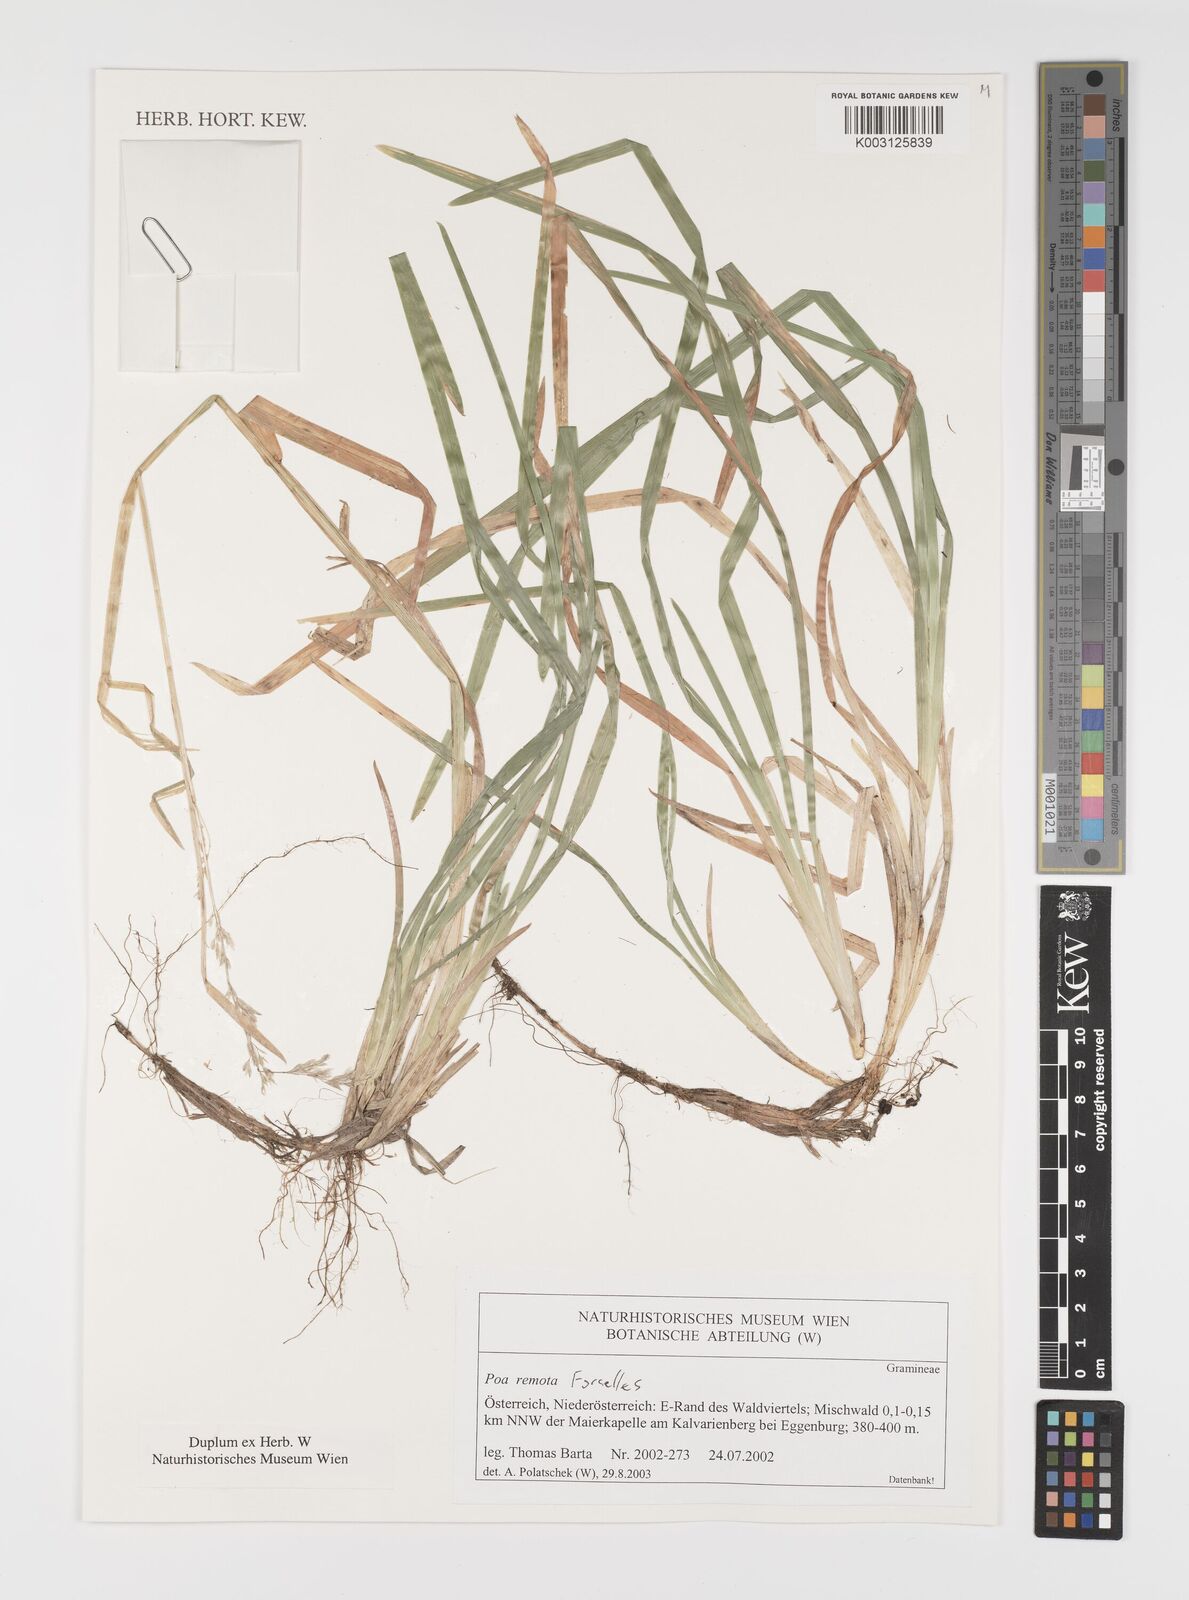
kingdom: Plantae
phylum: Tracheophyta
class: Liliopsida
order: Poales
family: Poaceae
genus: Poa
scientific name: Poa remota
